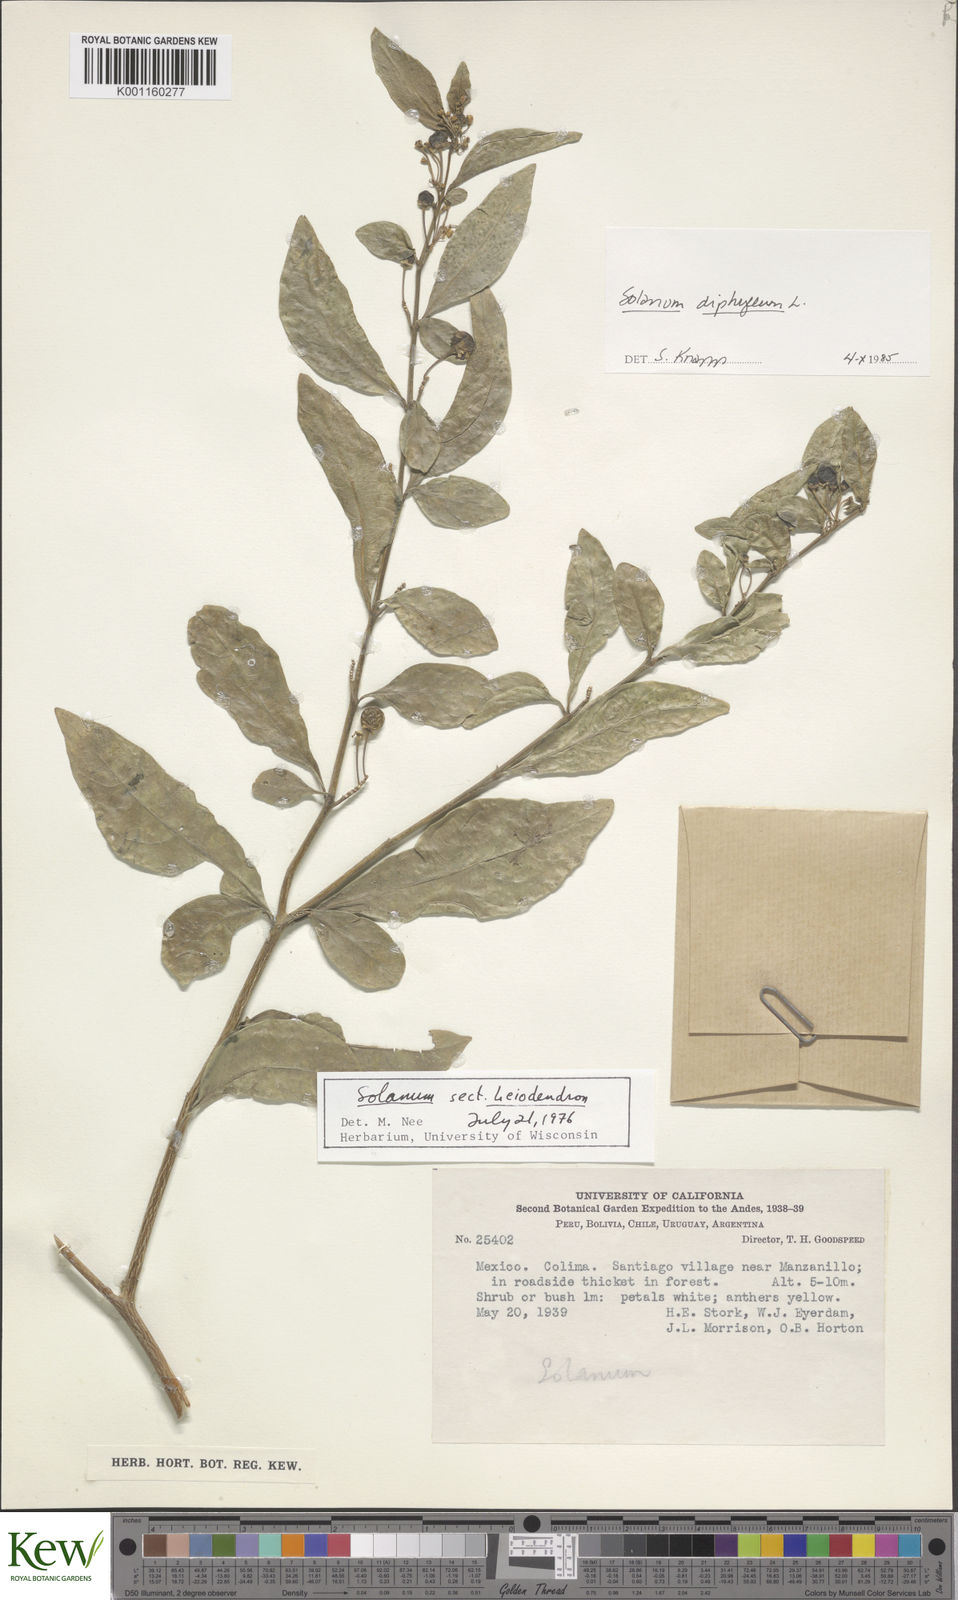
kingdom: Plantae
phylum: Tracheophyta
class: Magnoliopsida
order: Solanales
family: Solanaceae
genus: Solanum
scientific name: Solanum diphyllum
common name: Twoleaf nightshade
